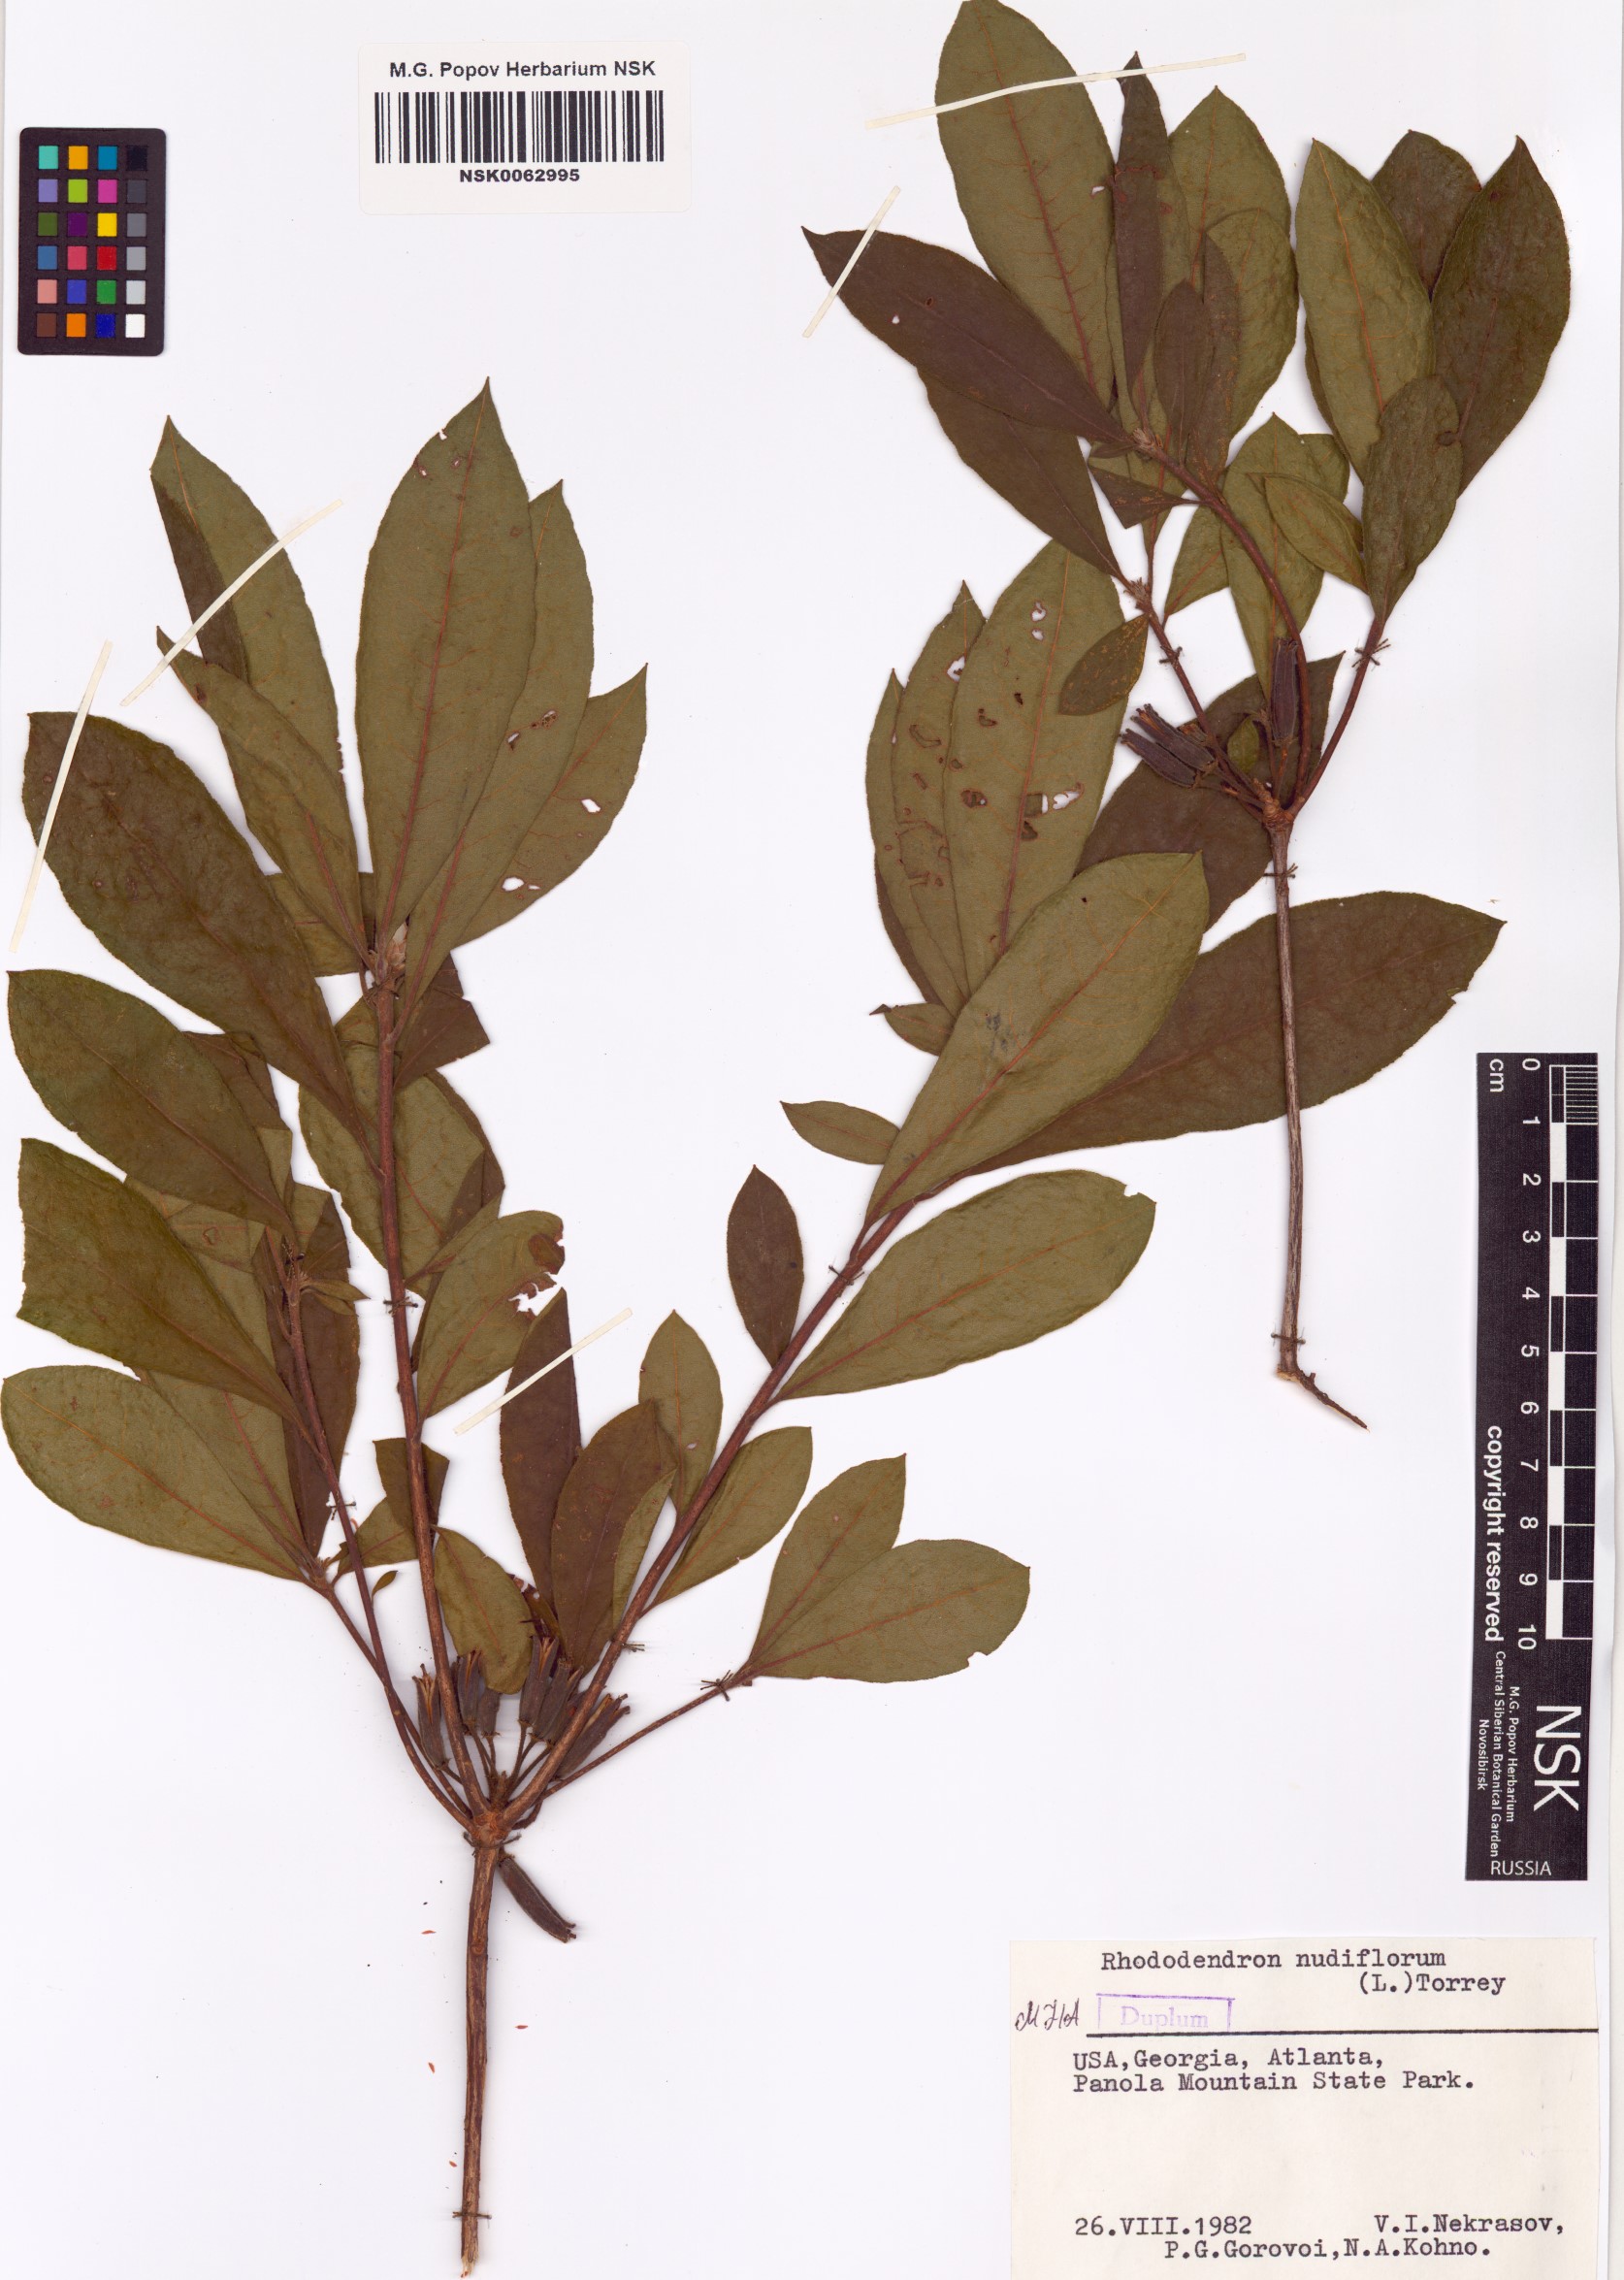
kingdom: Plantae
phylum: Tracheophyta
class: Magnoliopsida
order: Ericales
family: Ericaceae
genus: Rhododendron
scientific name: Rhododendron periclymenoides
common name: Election-pink
